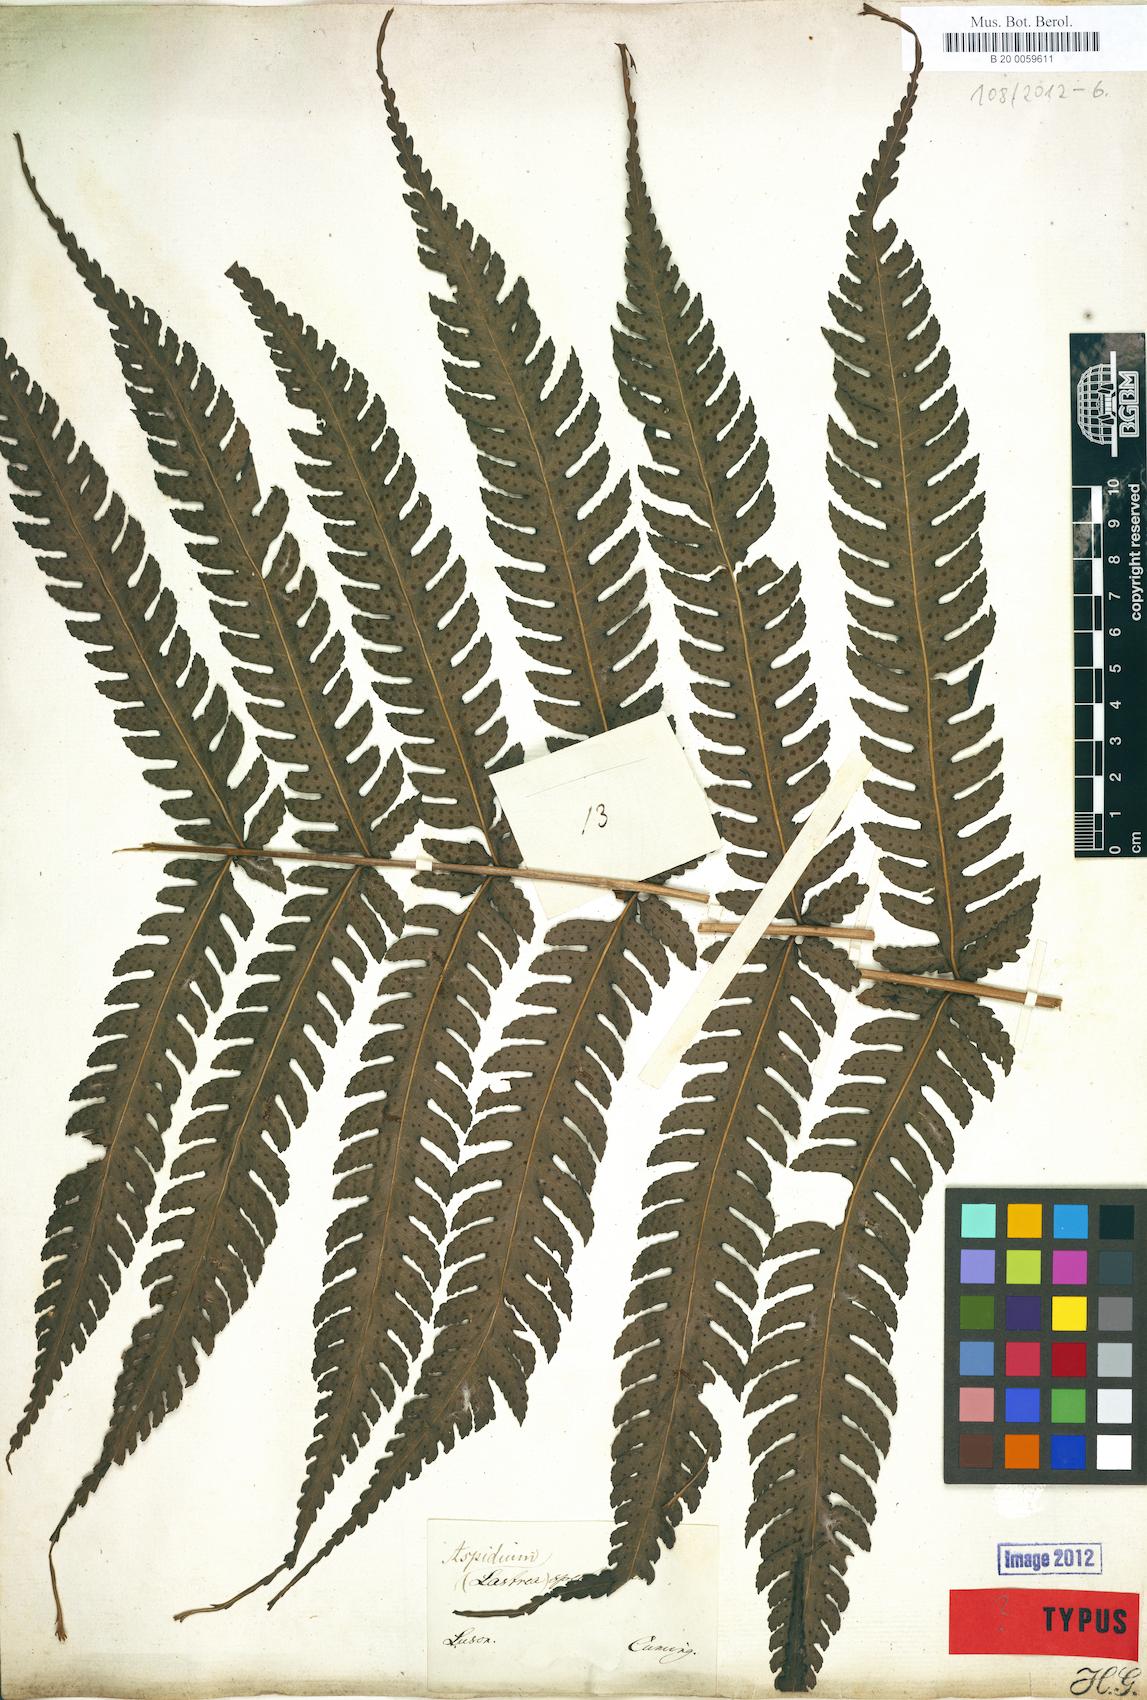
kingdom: Plantae
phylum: Tracheophyta
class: Polypodiopsida
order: Polypodiales
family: Dryopteridaceae
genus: Polystichum
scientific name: Polystichum multifidum
